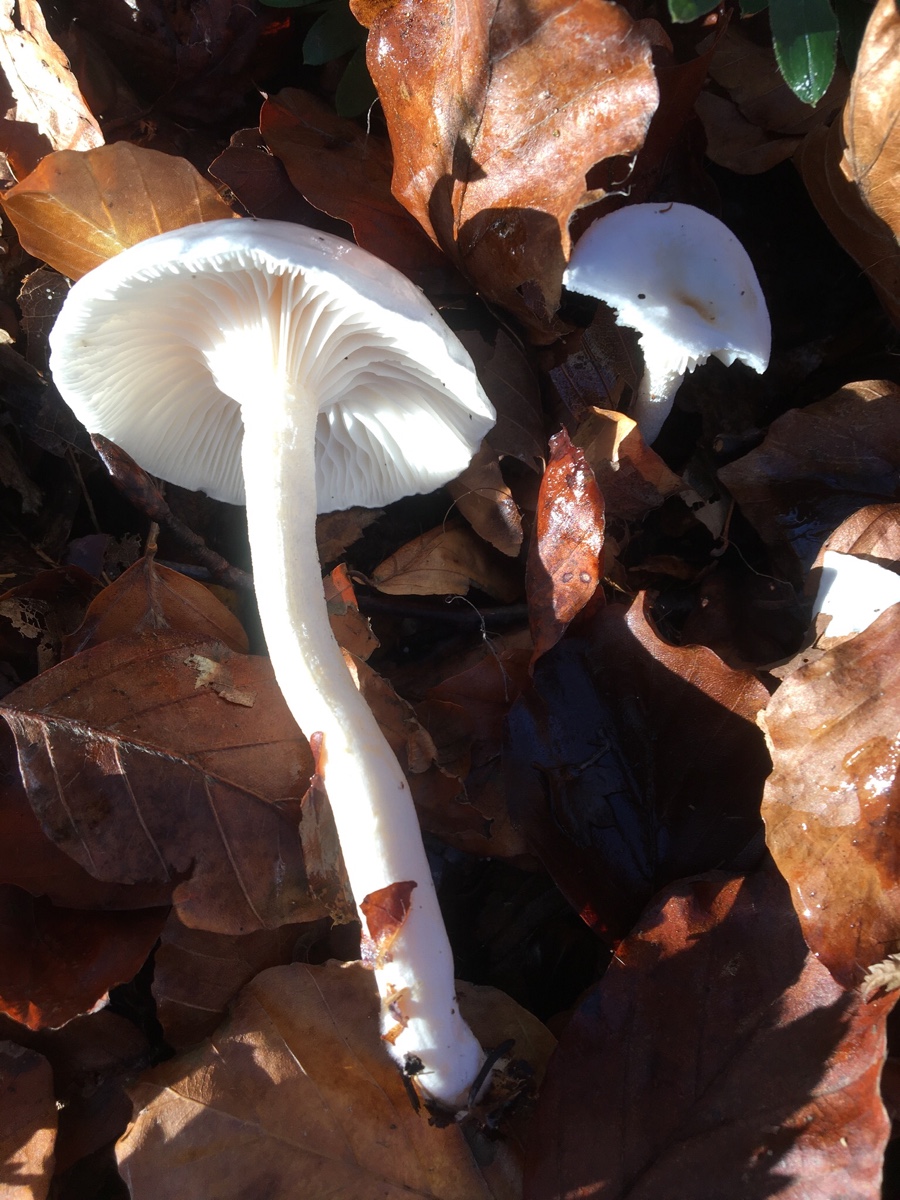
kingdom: Fungi
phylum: Basidiomycota
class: Agaricomycetes
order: Agaricales
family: Hygrophoraceae
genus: Hygrophorus
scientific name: Hygrophorus
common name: sneglehat
